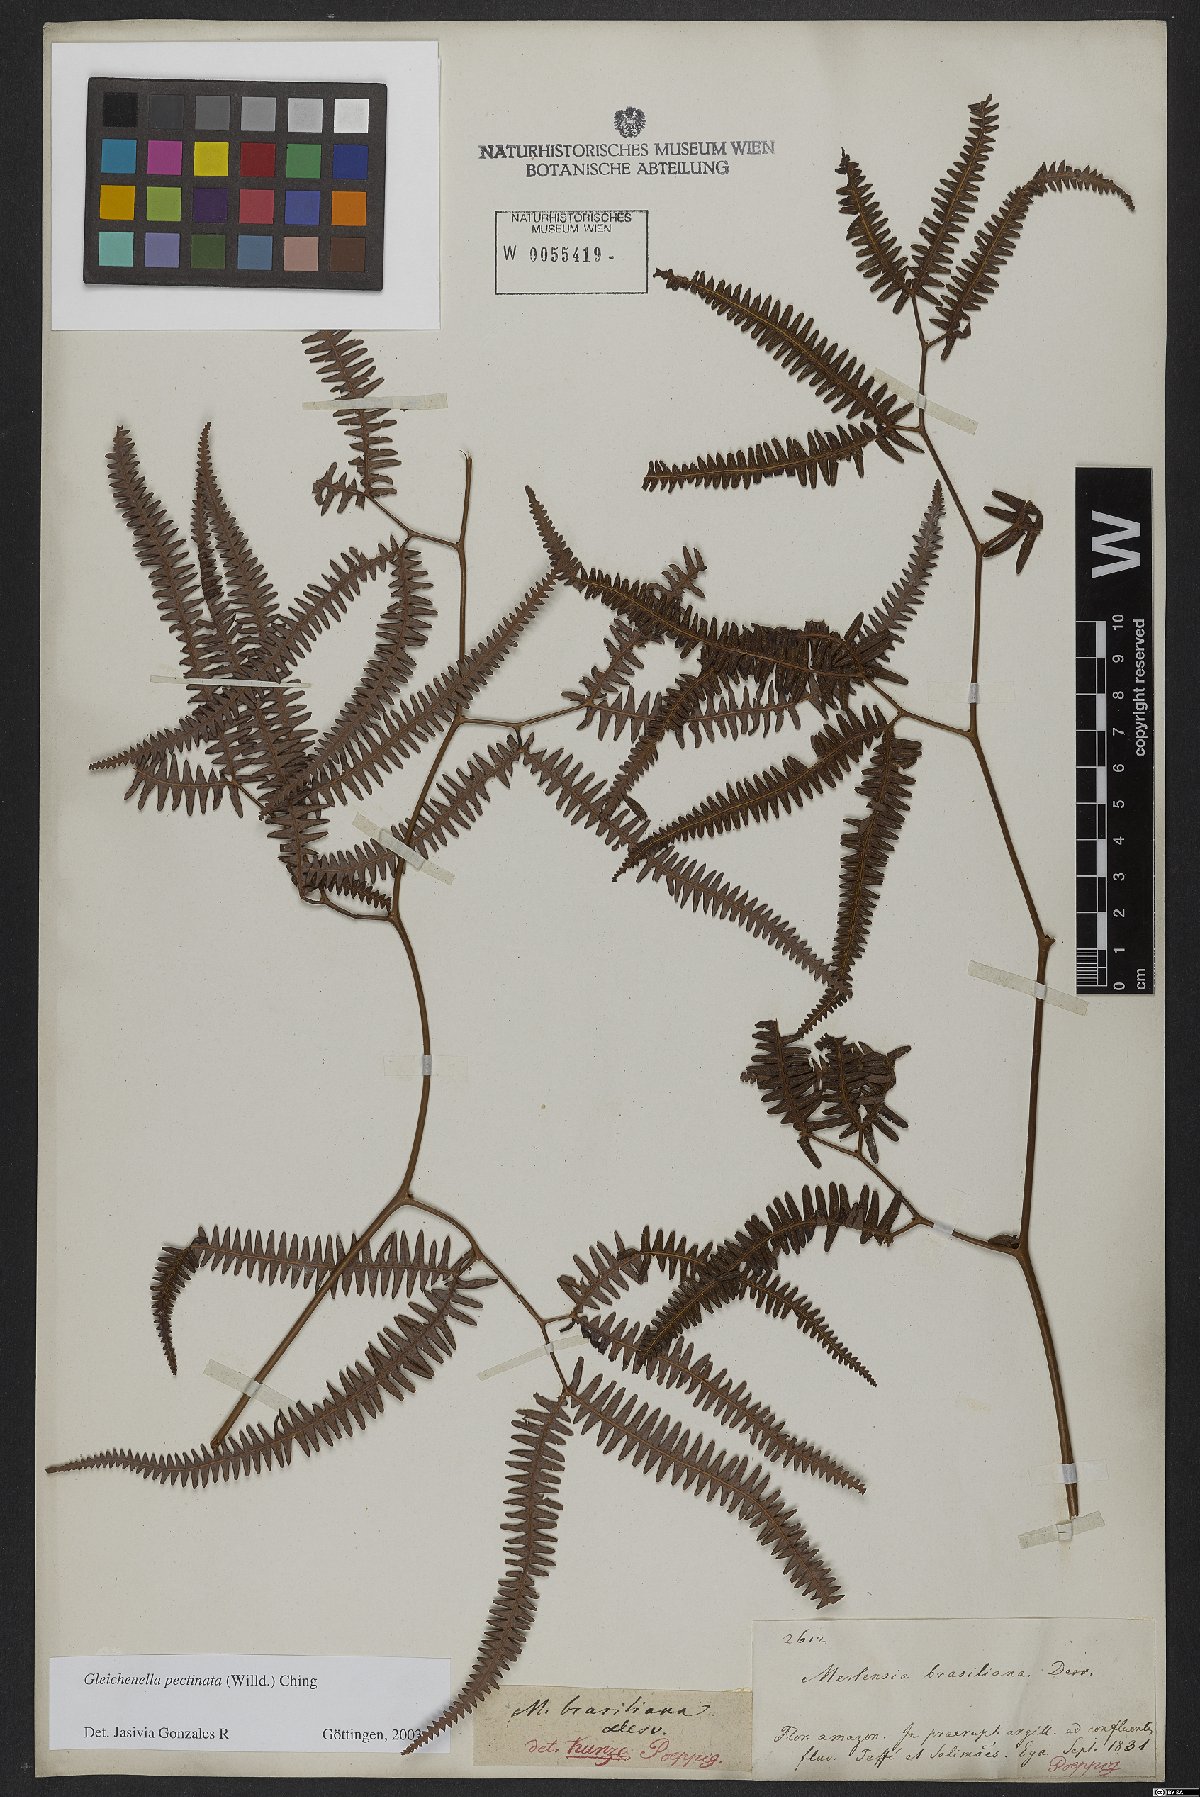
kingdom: Plantae
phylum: Tracheophyta
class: Polypodiopsida
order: Gleicheniales
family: Gleicheniaceae
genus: Gleichenella
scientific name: Gleichenella pectinata
